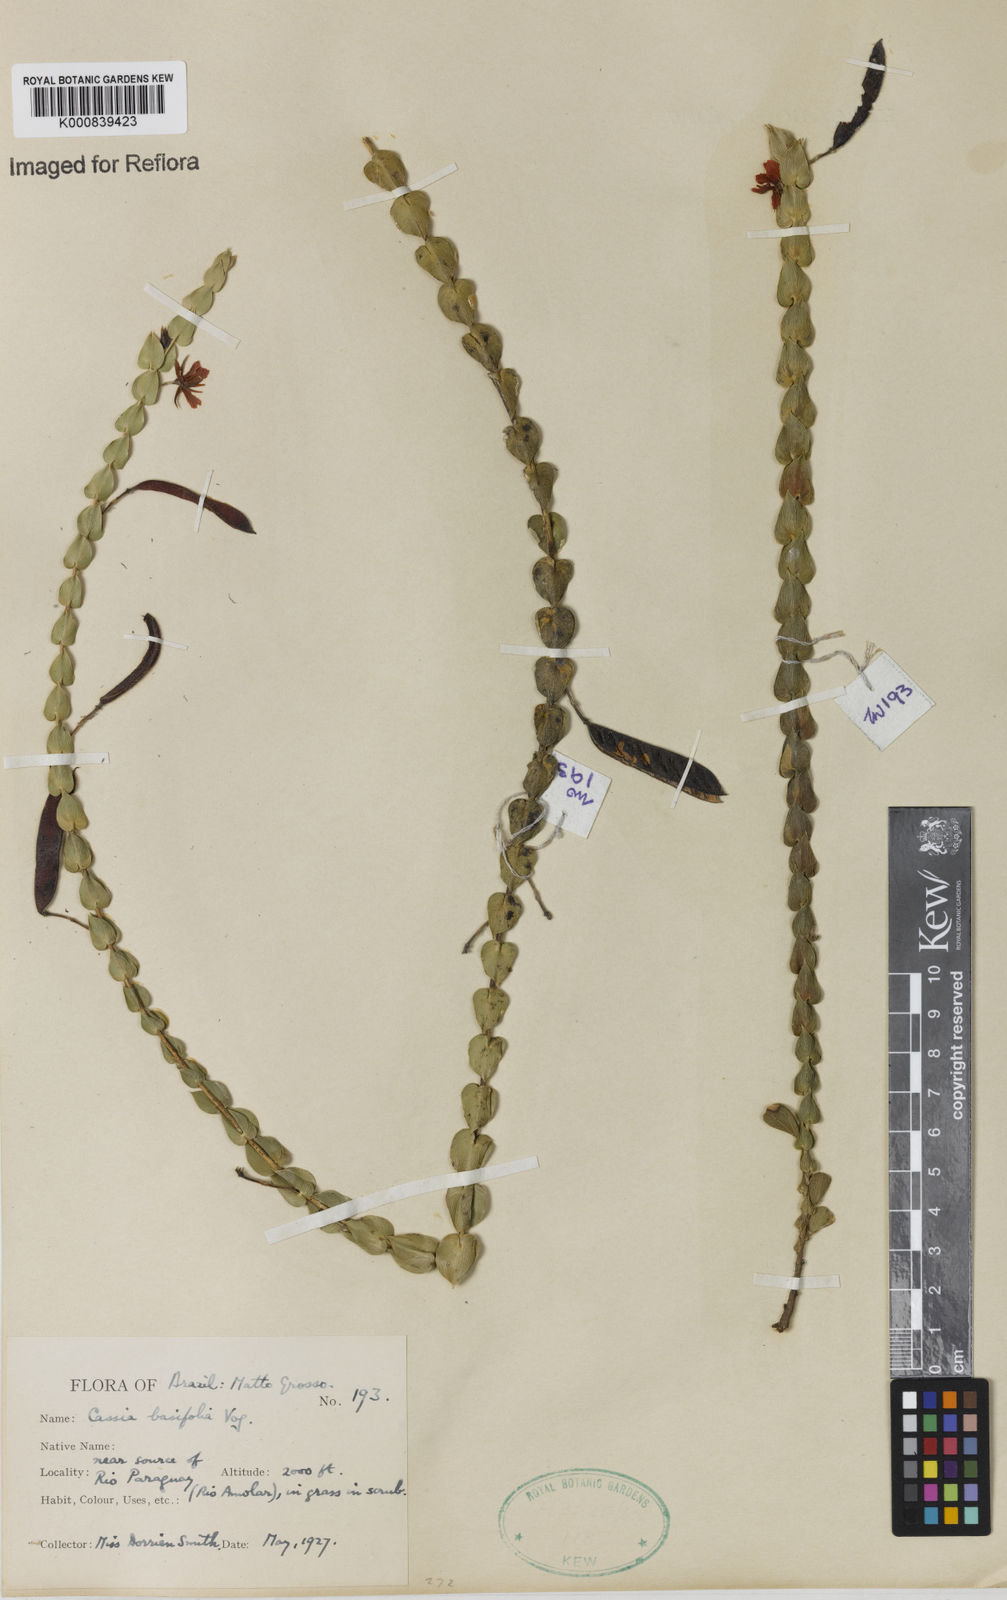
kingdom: Plantae
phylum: Tracheophyta
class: Magnoliopsida
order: Fabales
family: Fabaceae
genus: Chamaecrista
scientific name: Chamaecrista basifolia
